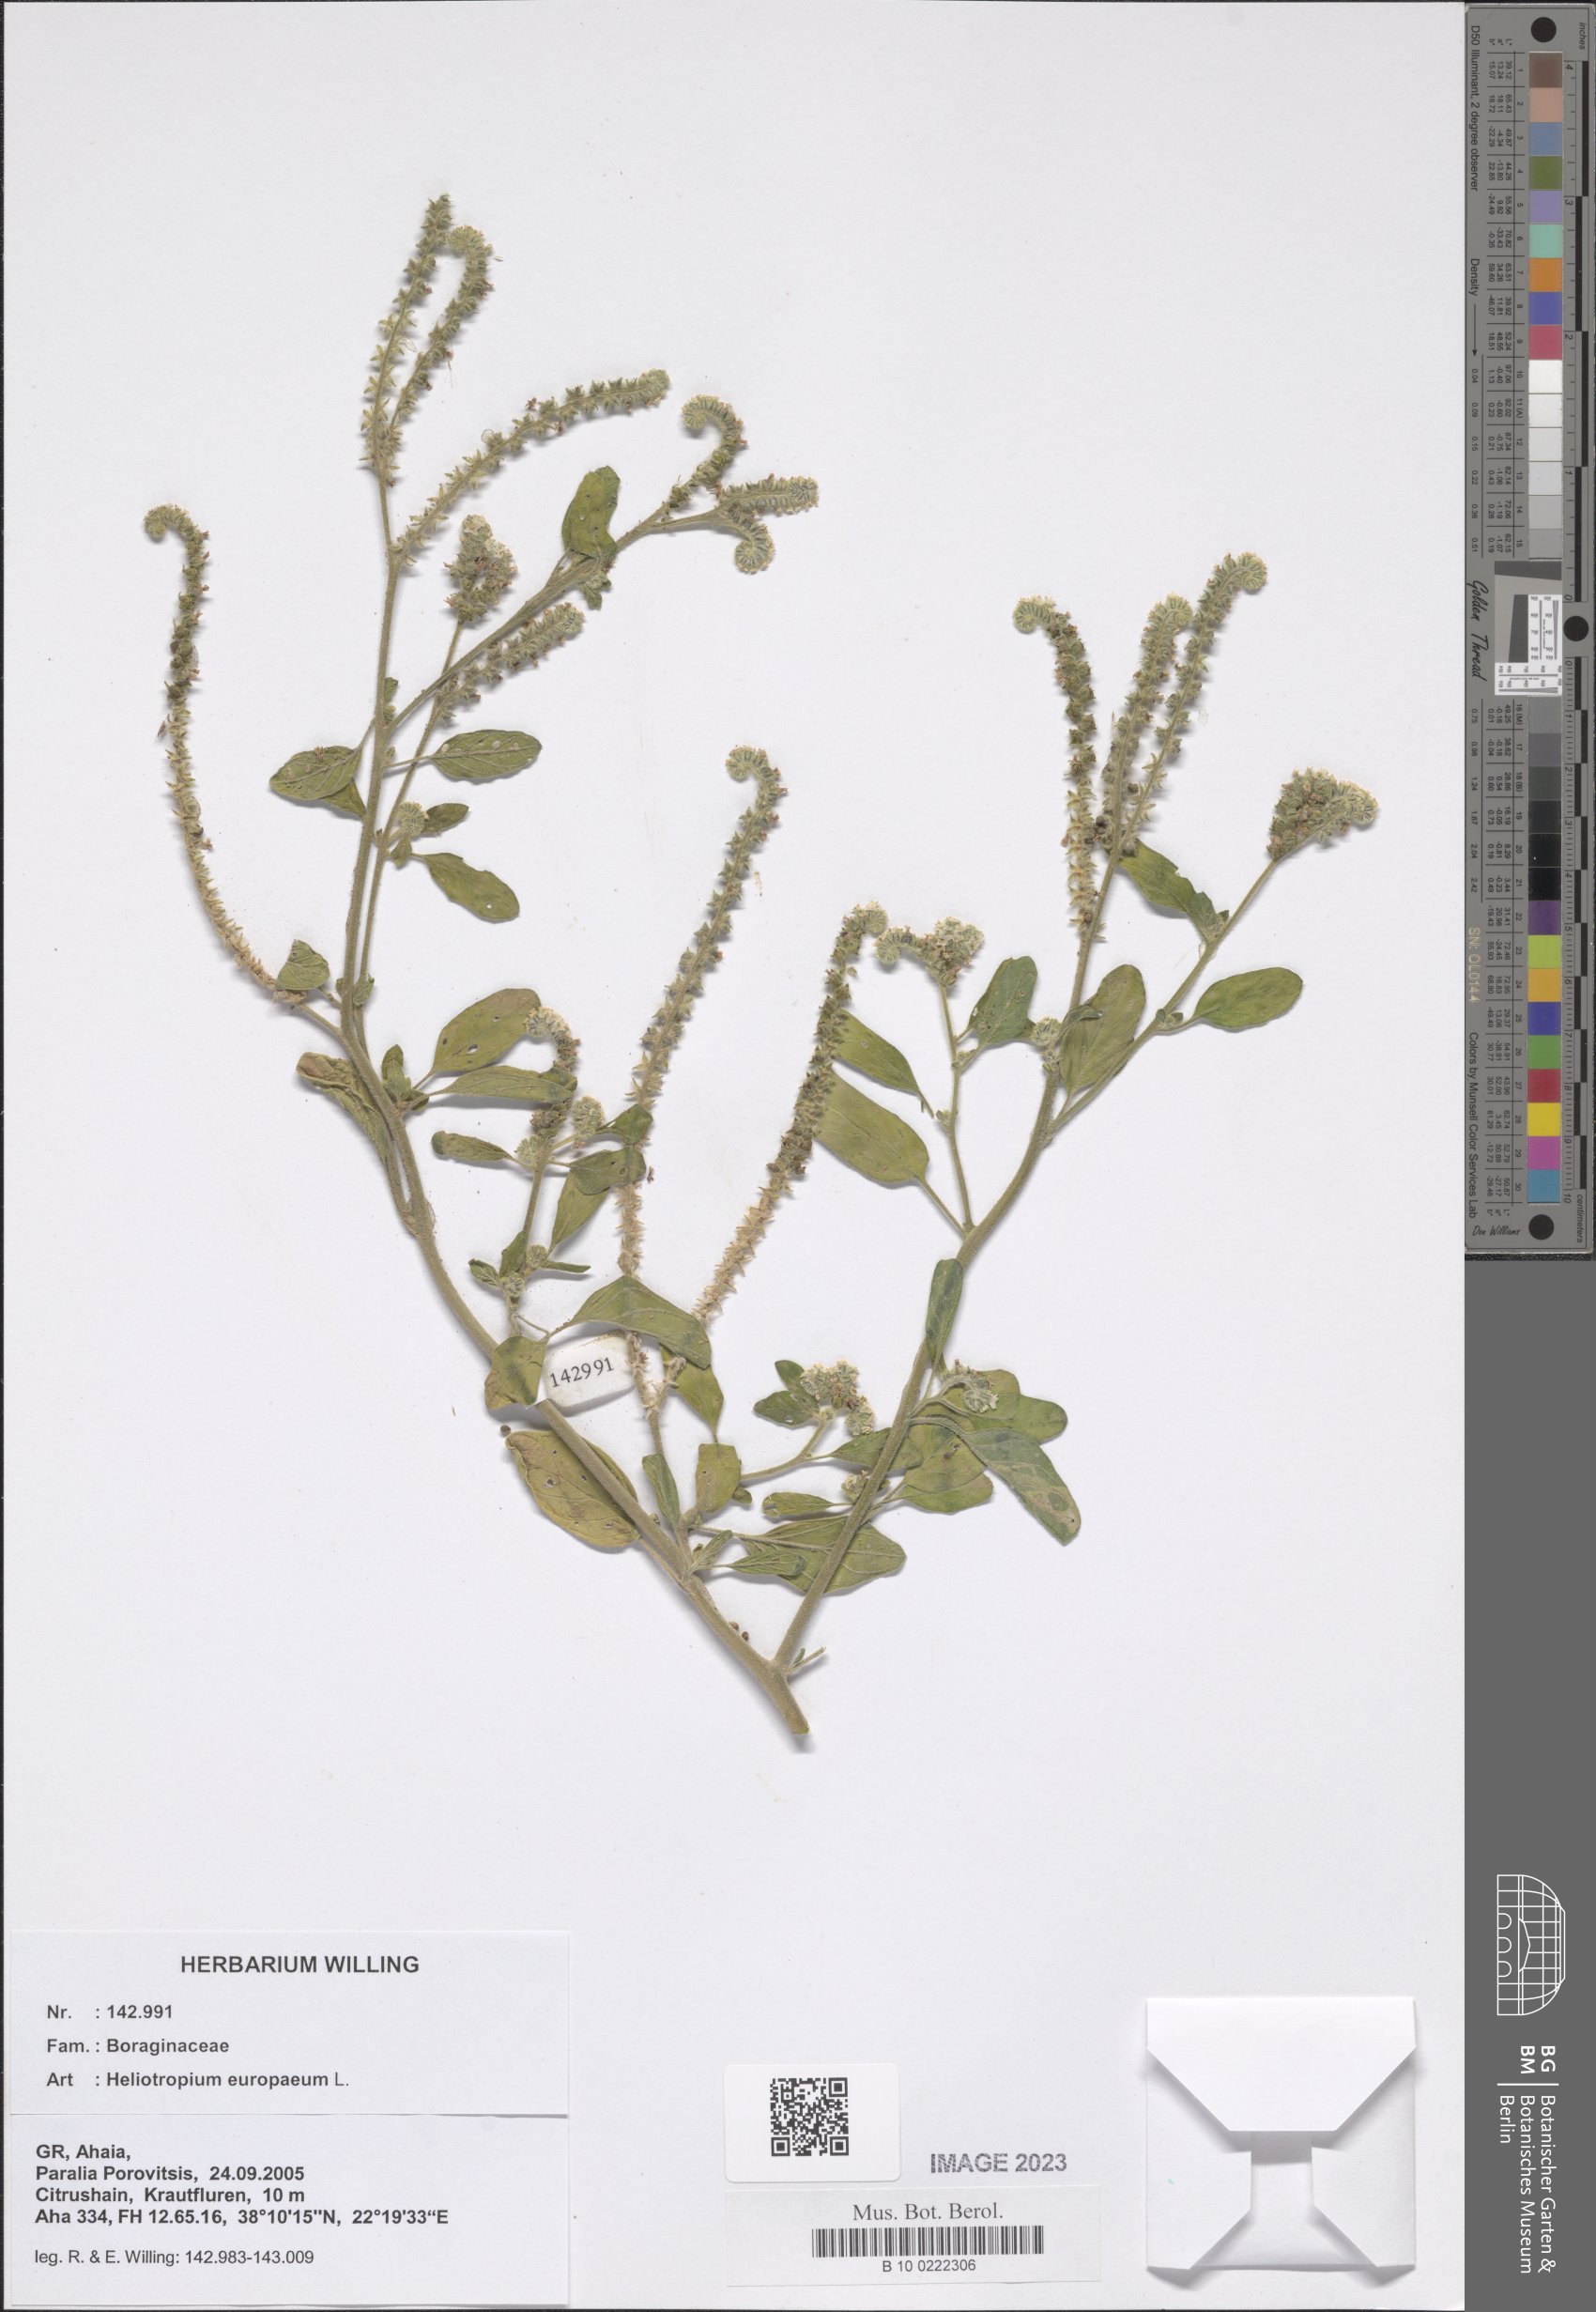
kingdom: Plantae
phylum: Tracheophyta
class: Magnoliopsida
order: Boraginales
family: Heliotropiaceae
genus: Heliotropium
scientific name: Heliotropium europaeum
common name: European heliotrope
